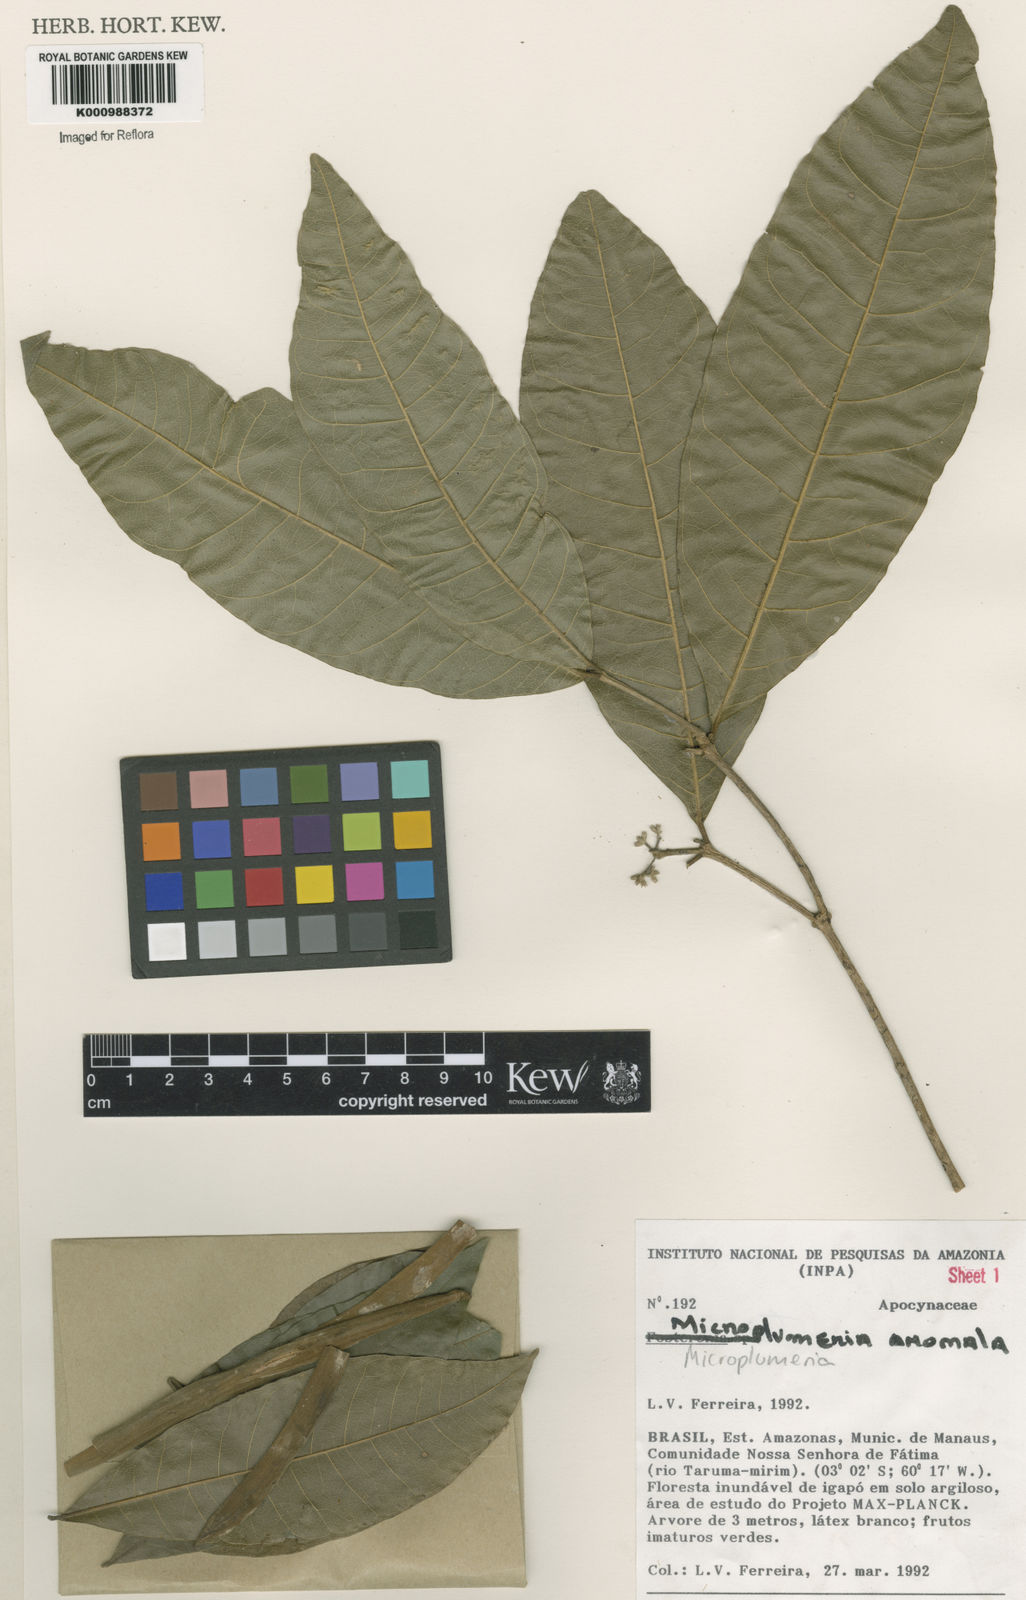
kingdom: Plantae
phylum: Tracheophyta
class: Magnoliopsida
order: Gentianales
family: Apocynaceae
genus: Microplumeria
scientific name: Microplumeria
